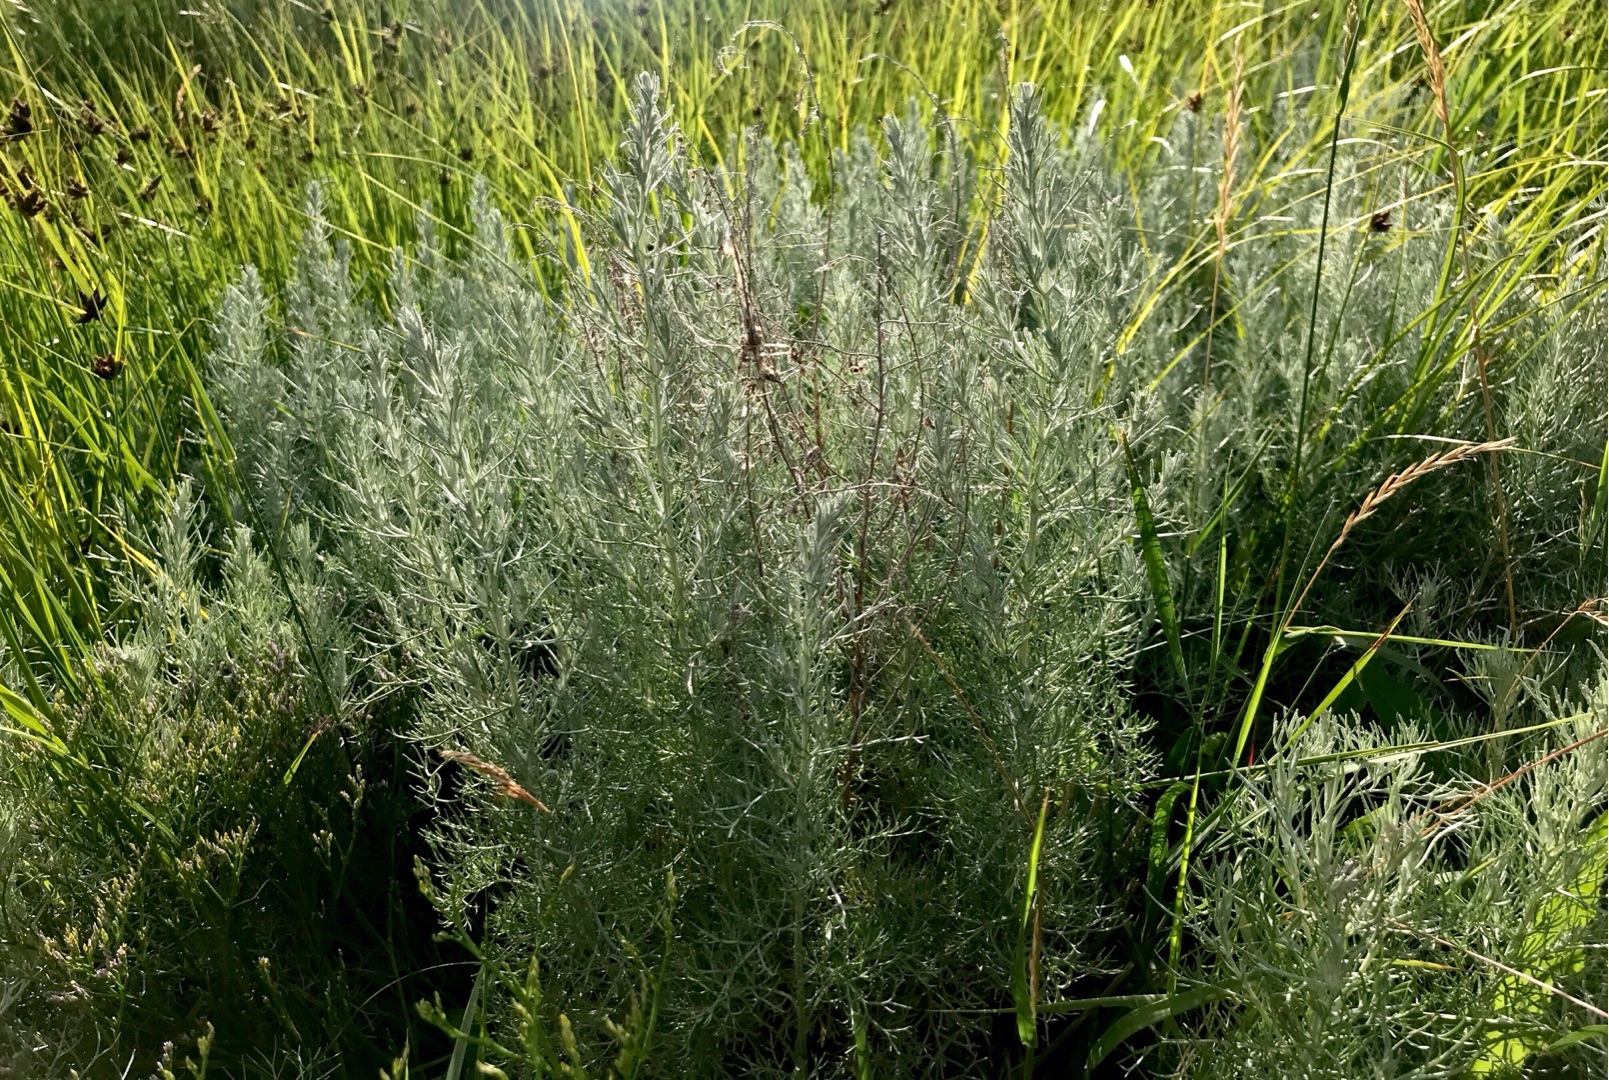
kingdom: Plantae
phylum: Tracheophyta
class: Magnoliopsida
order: Asterales
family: Asteraceae
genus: Artemisia
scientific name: Artemisia maritima
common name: Strandmalurt
